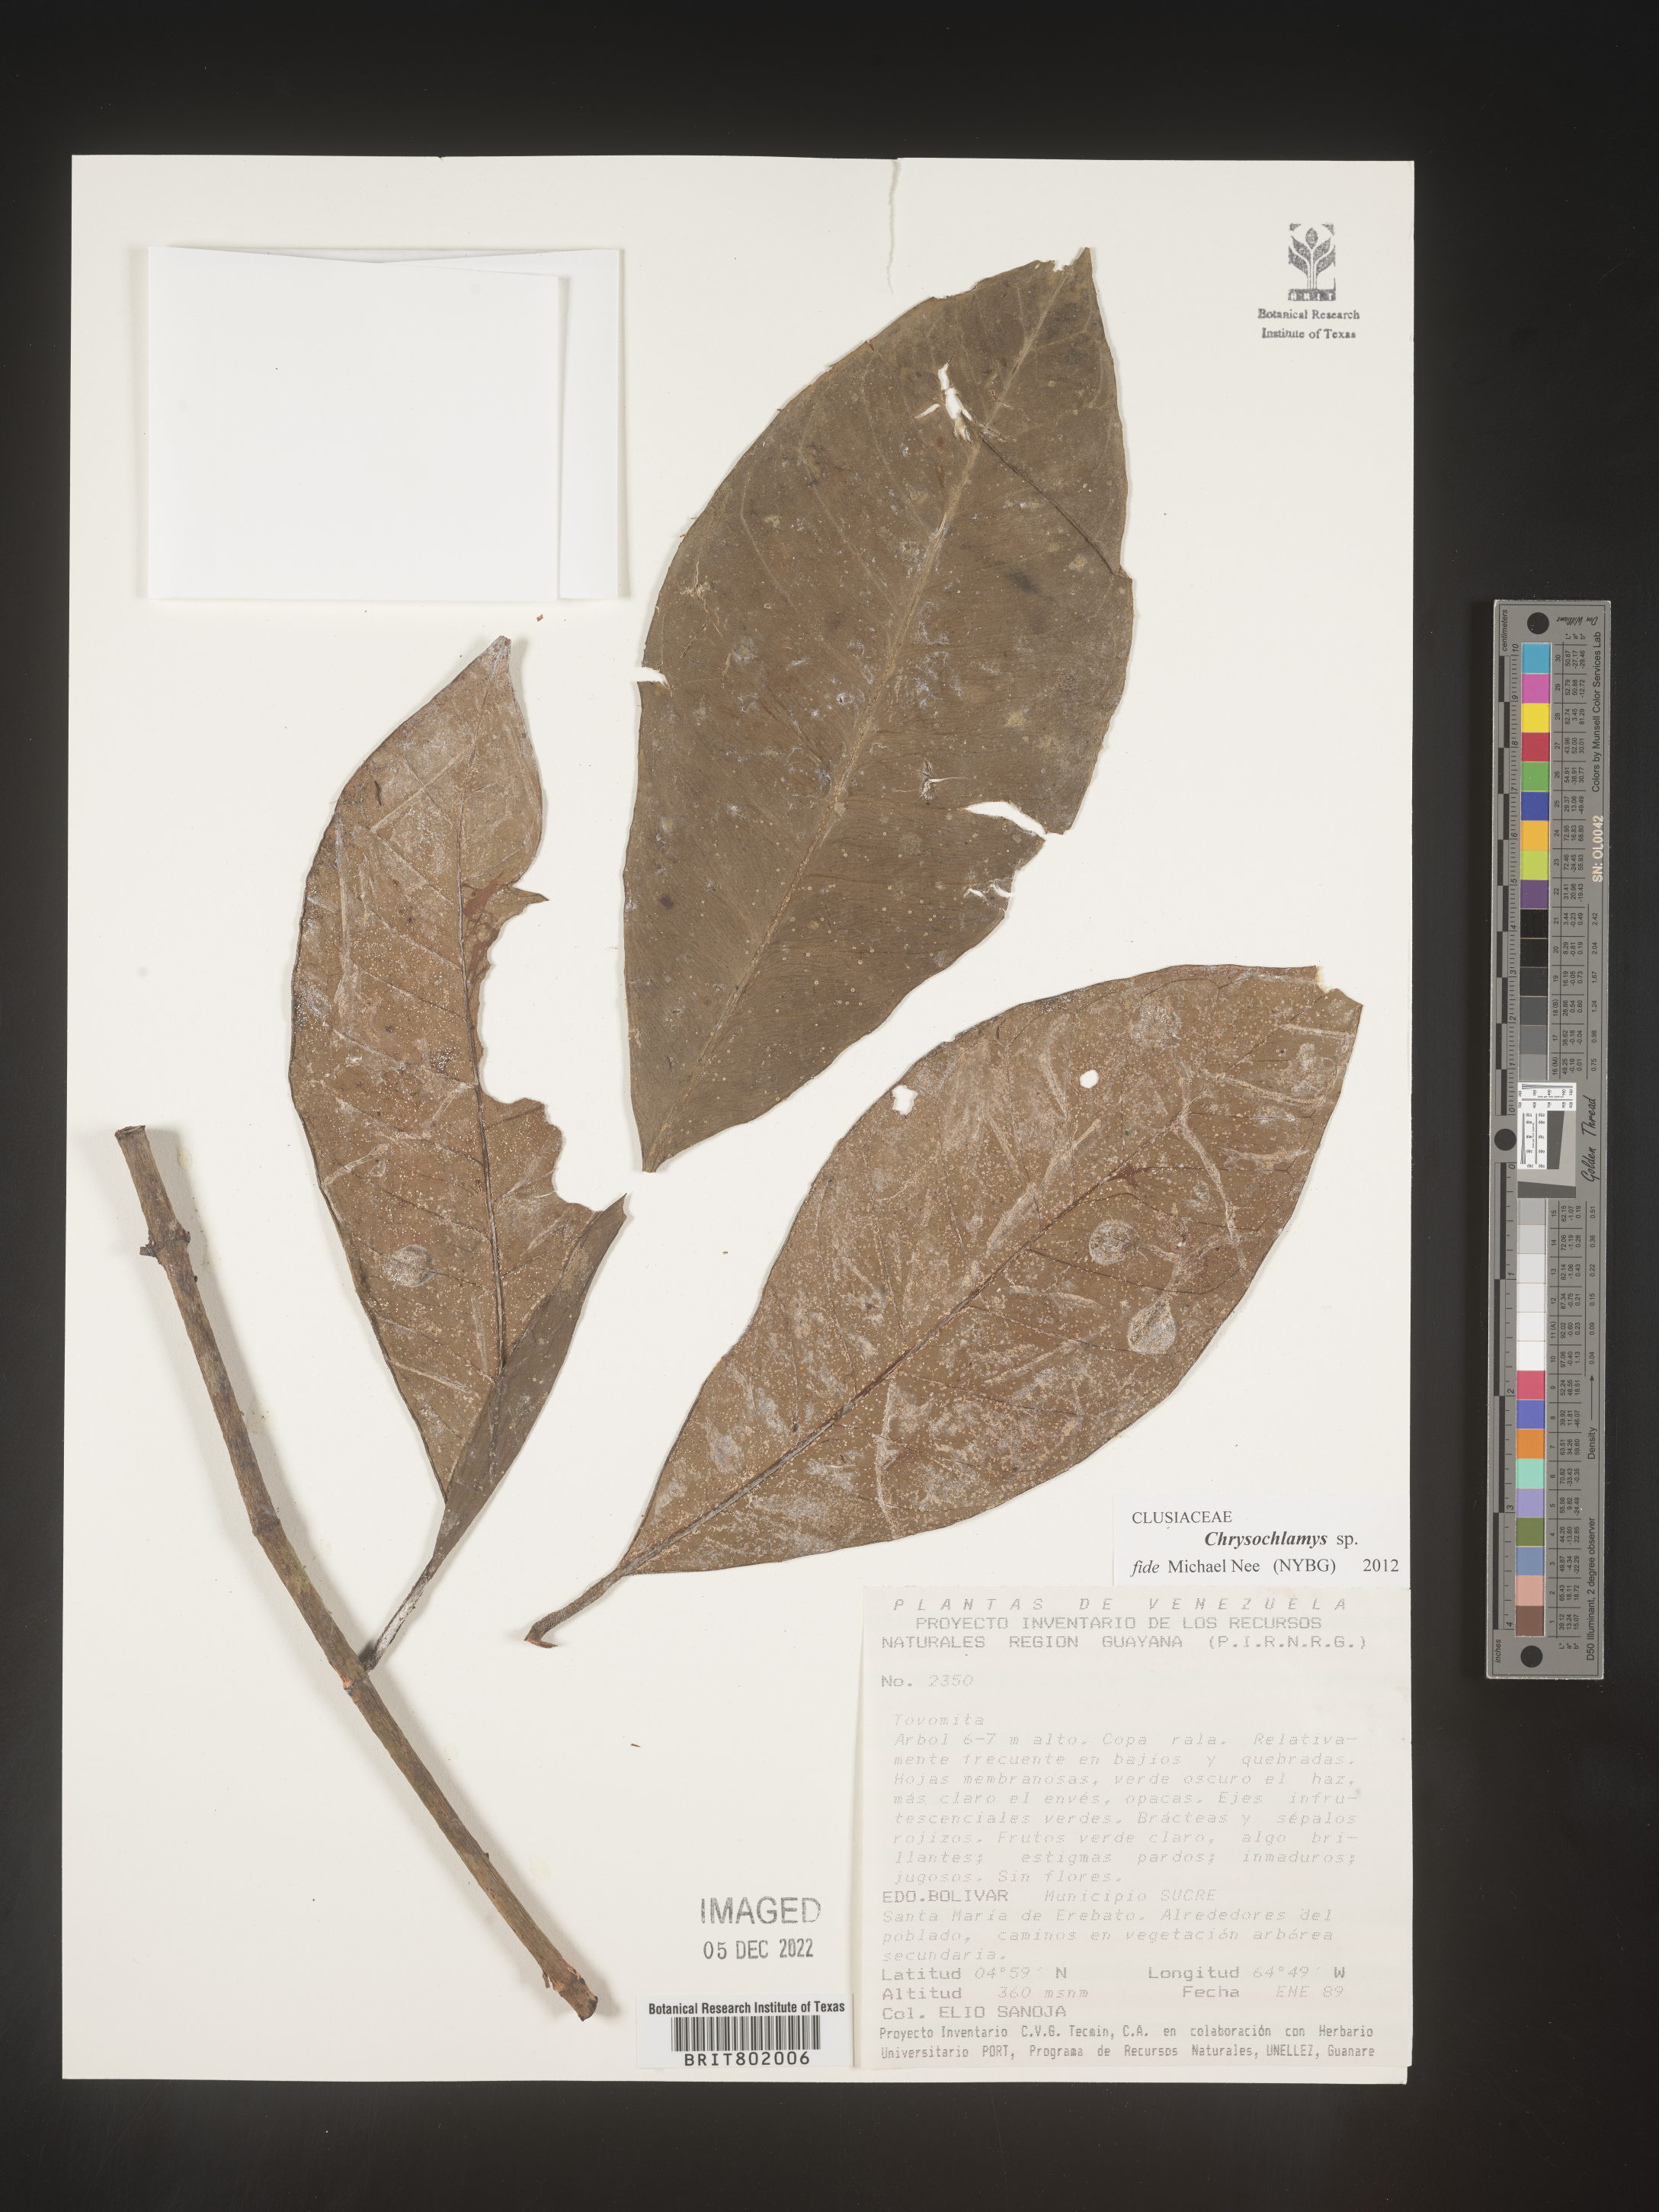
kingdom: Plantae
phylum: Tracheophyta
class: Magnoliopsida
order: Malpighiales
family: Clusiaceae
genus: Chrysochlamys
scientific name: Chrysochlamys
